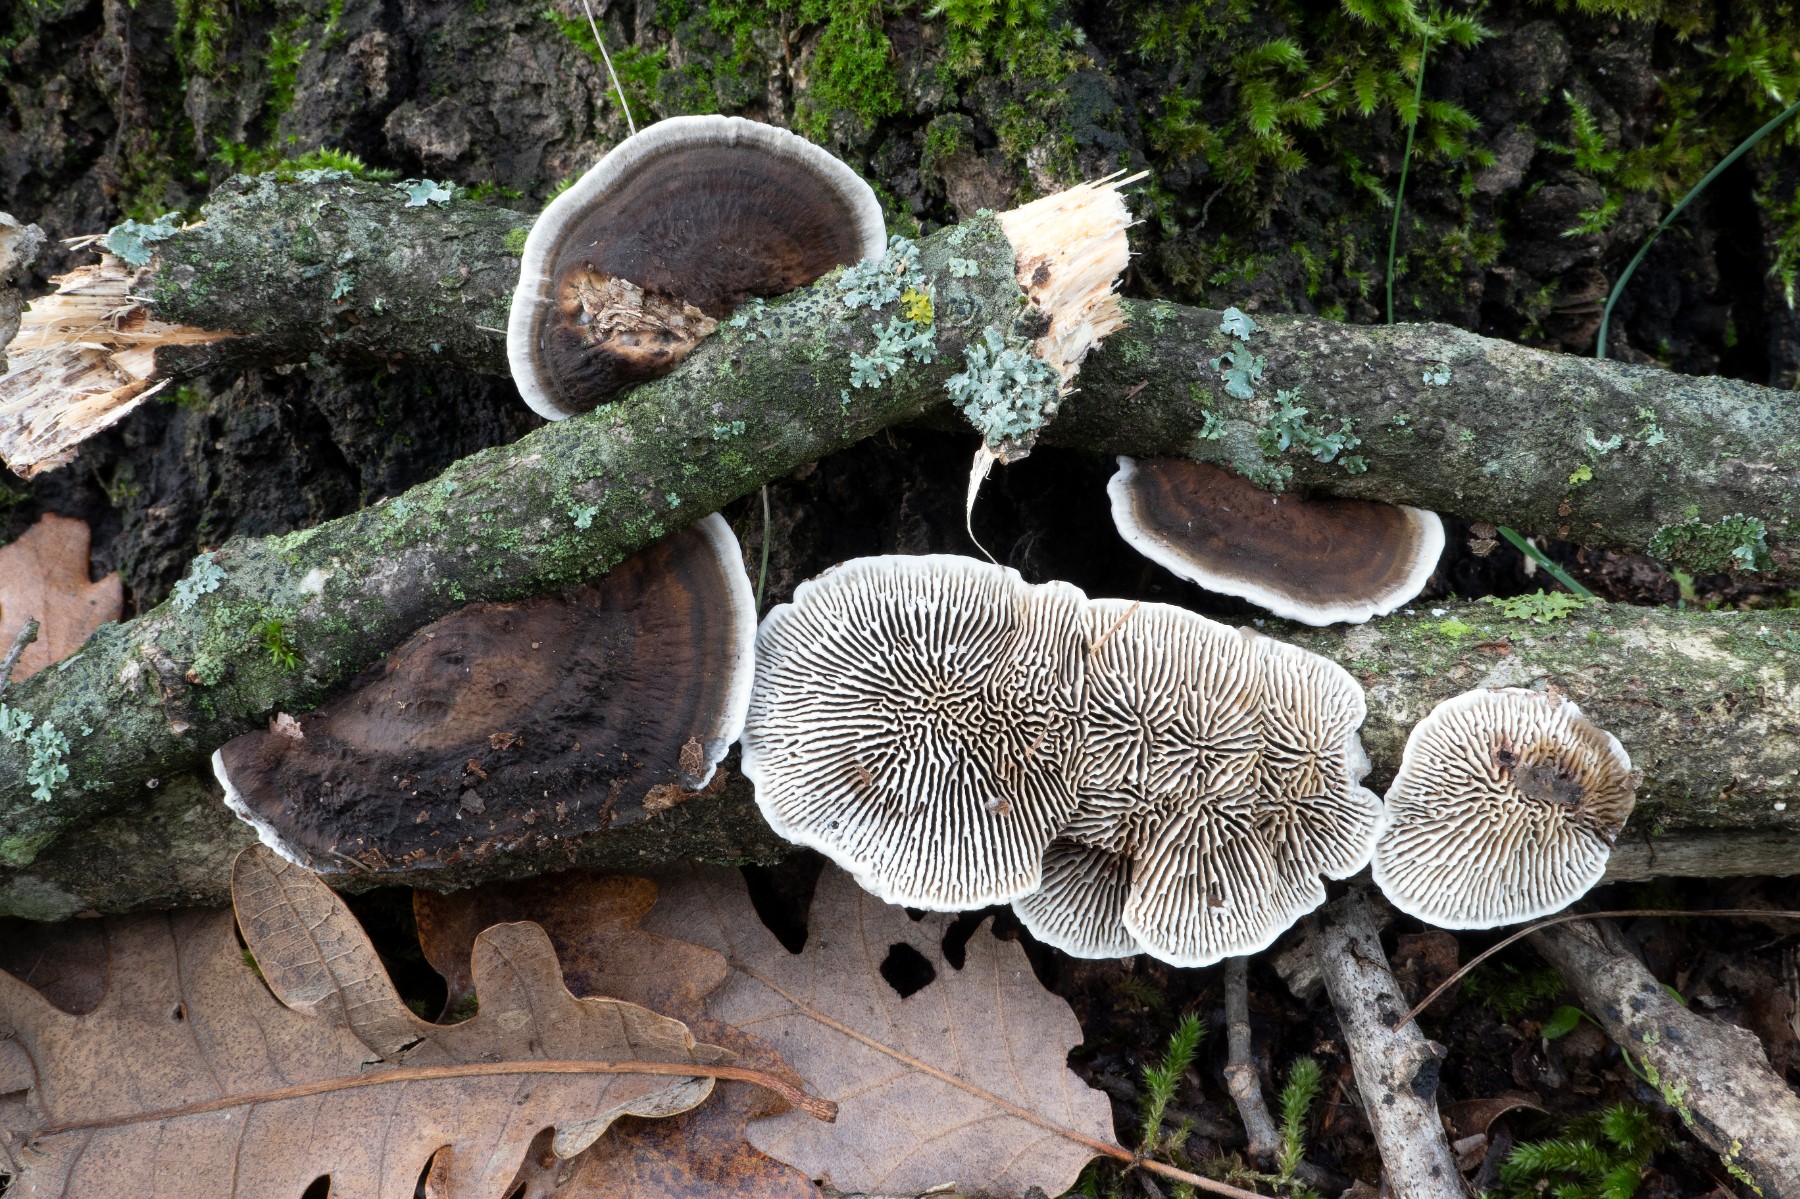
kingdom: Fungi
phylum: Basidiomycota
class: Agaricomycetes
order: Polyporales
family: Polyporaceae
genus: Daedaleopsis
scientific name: Daedaleopsis tricolor
